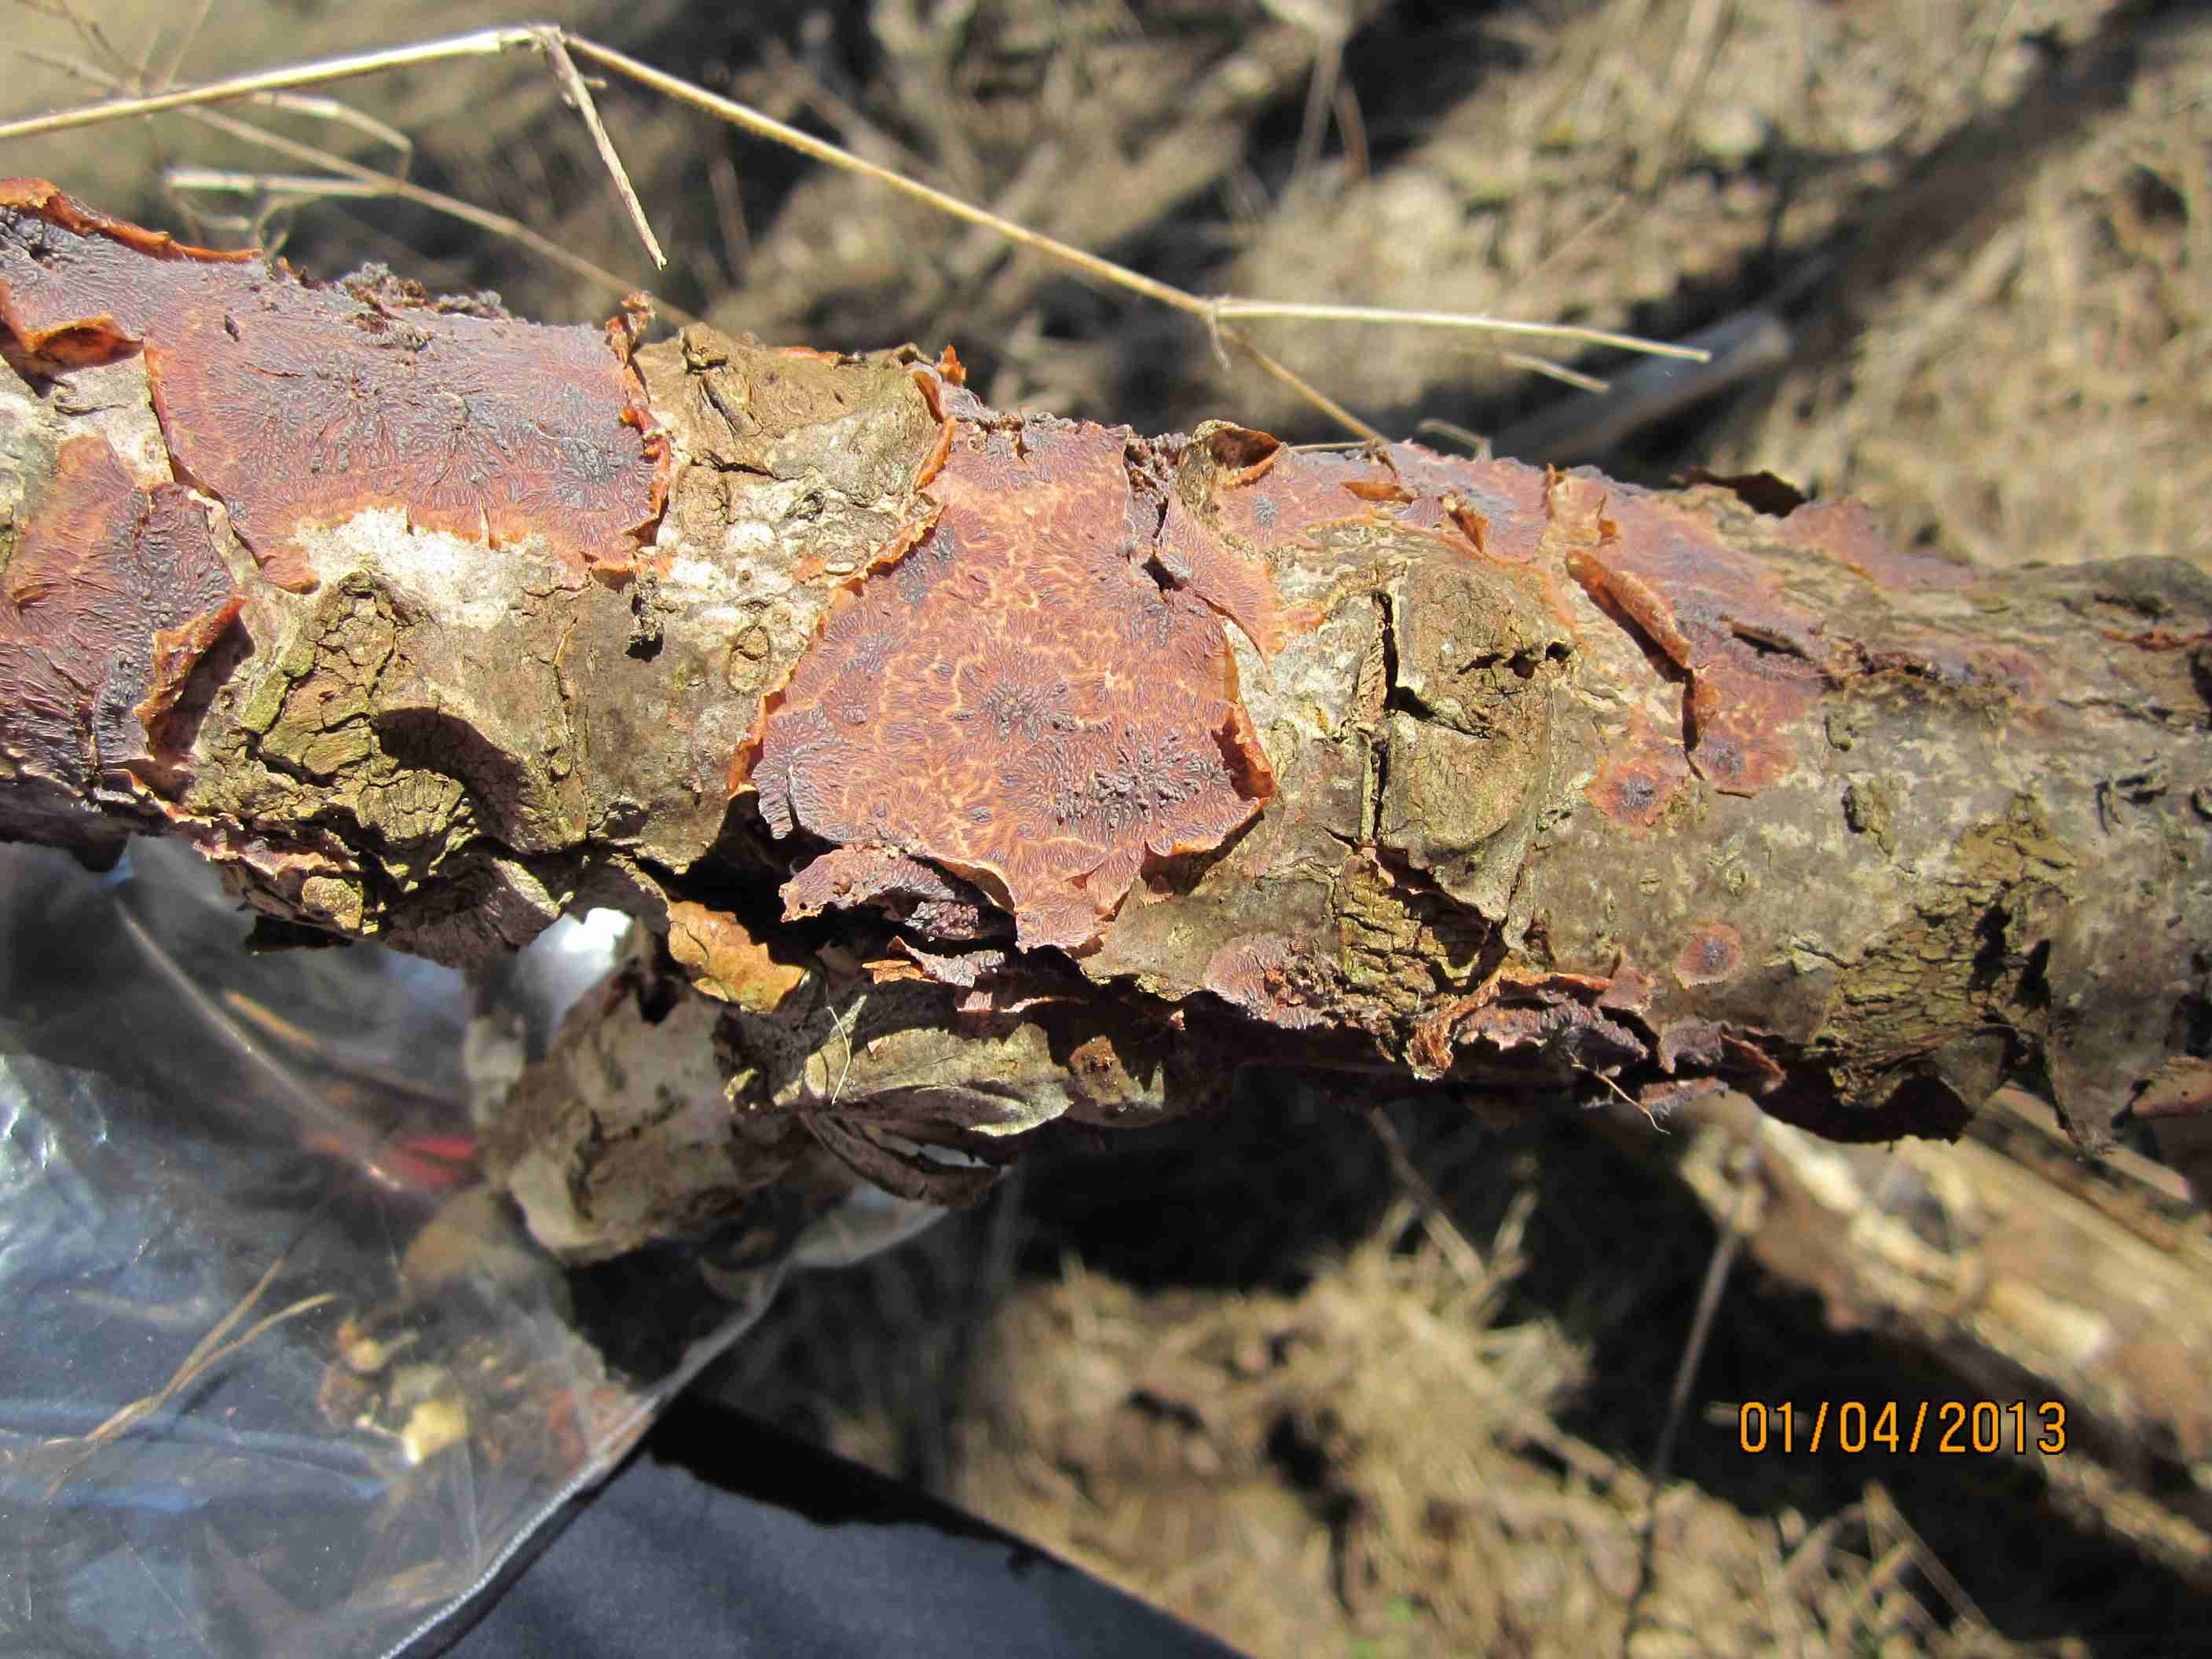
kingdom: Fungi
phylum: Basidiomycota
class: Agaricomycetes
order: Polyporales
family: Meruliaceae
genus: Phlebia
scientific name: Phlebia radiata
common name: stråle-åresvamp
